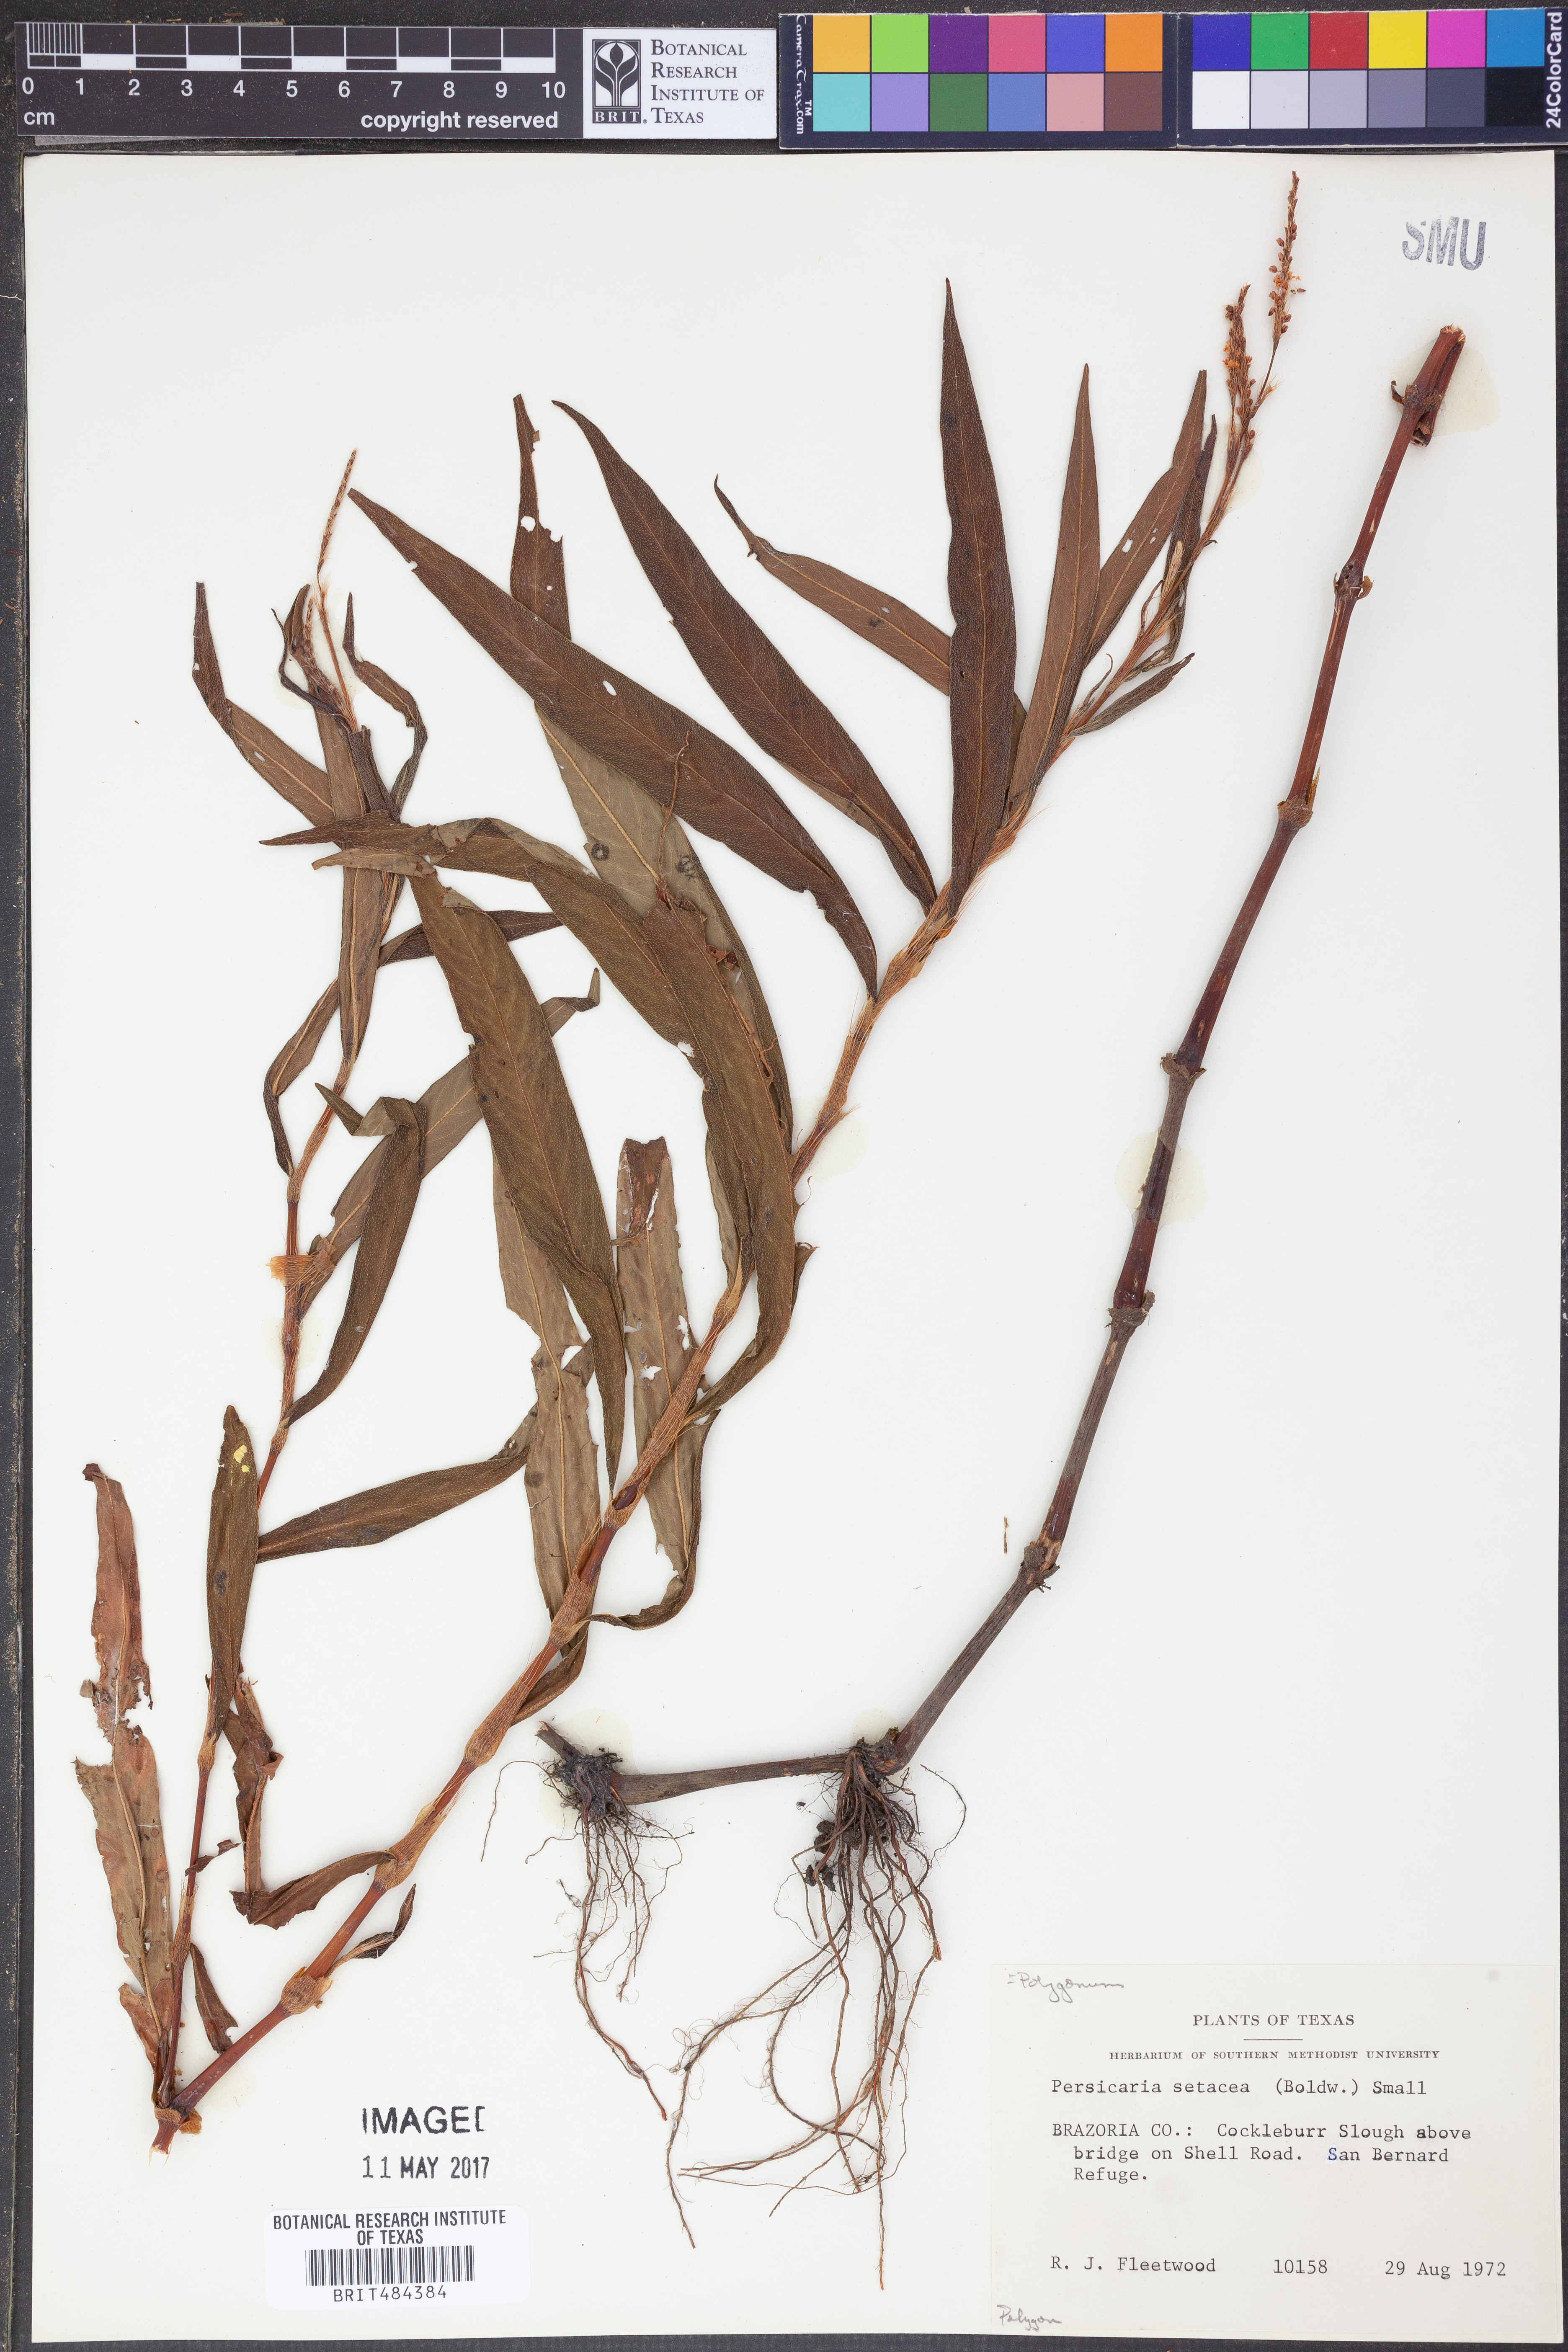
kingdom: Plantae
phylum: Tracheophyta
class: Magnoliopsida
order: Caryophyllales
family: Polygonaceae
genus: Persicaria
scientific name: Persicaria setacea
